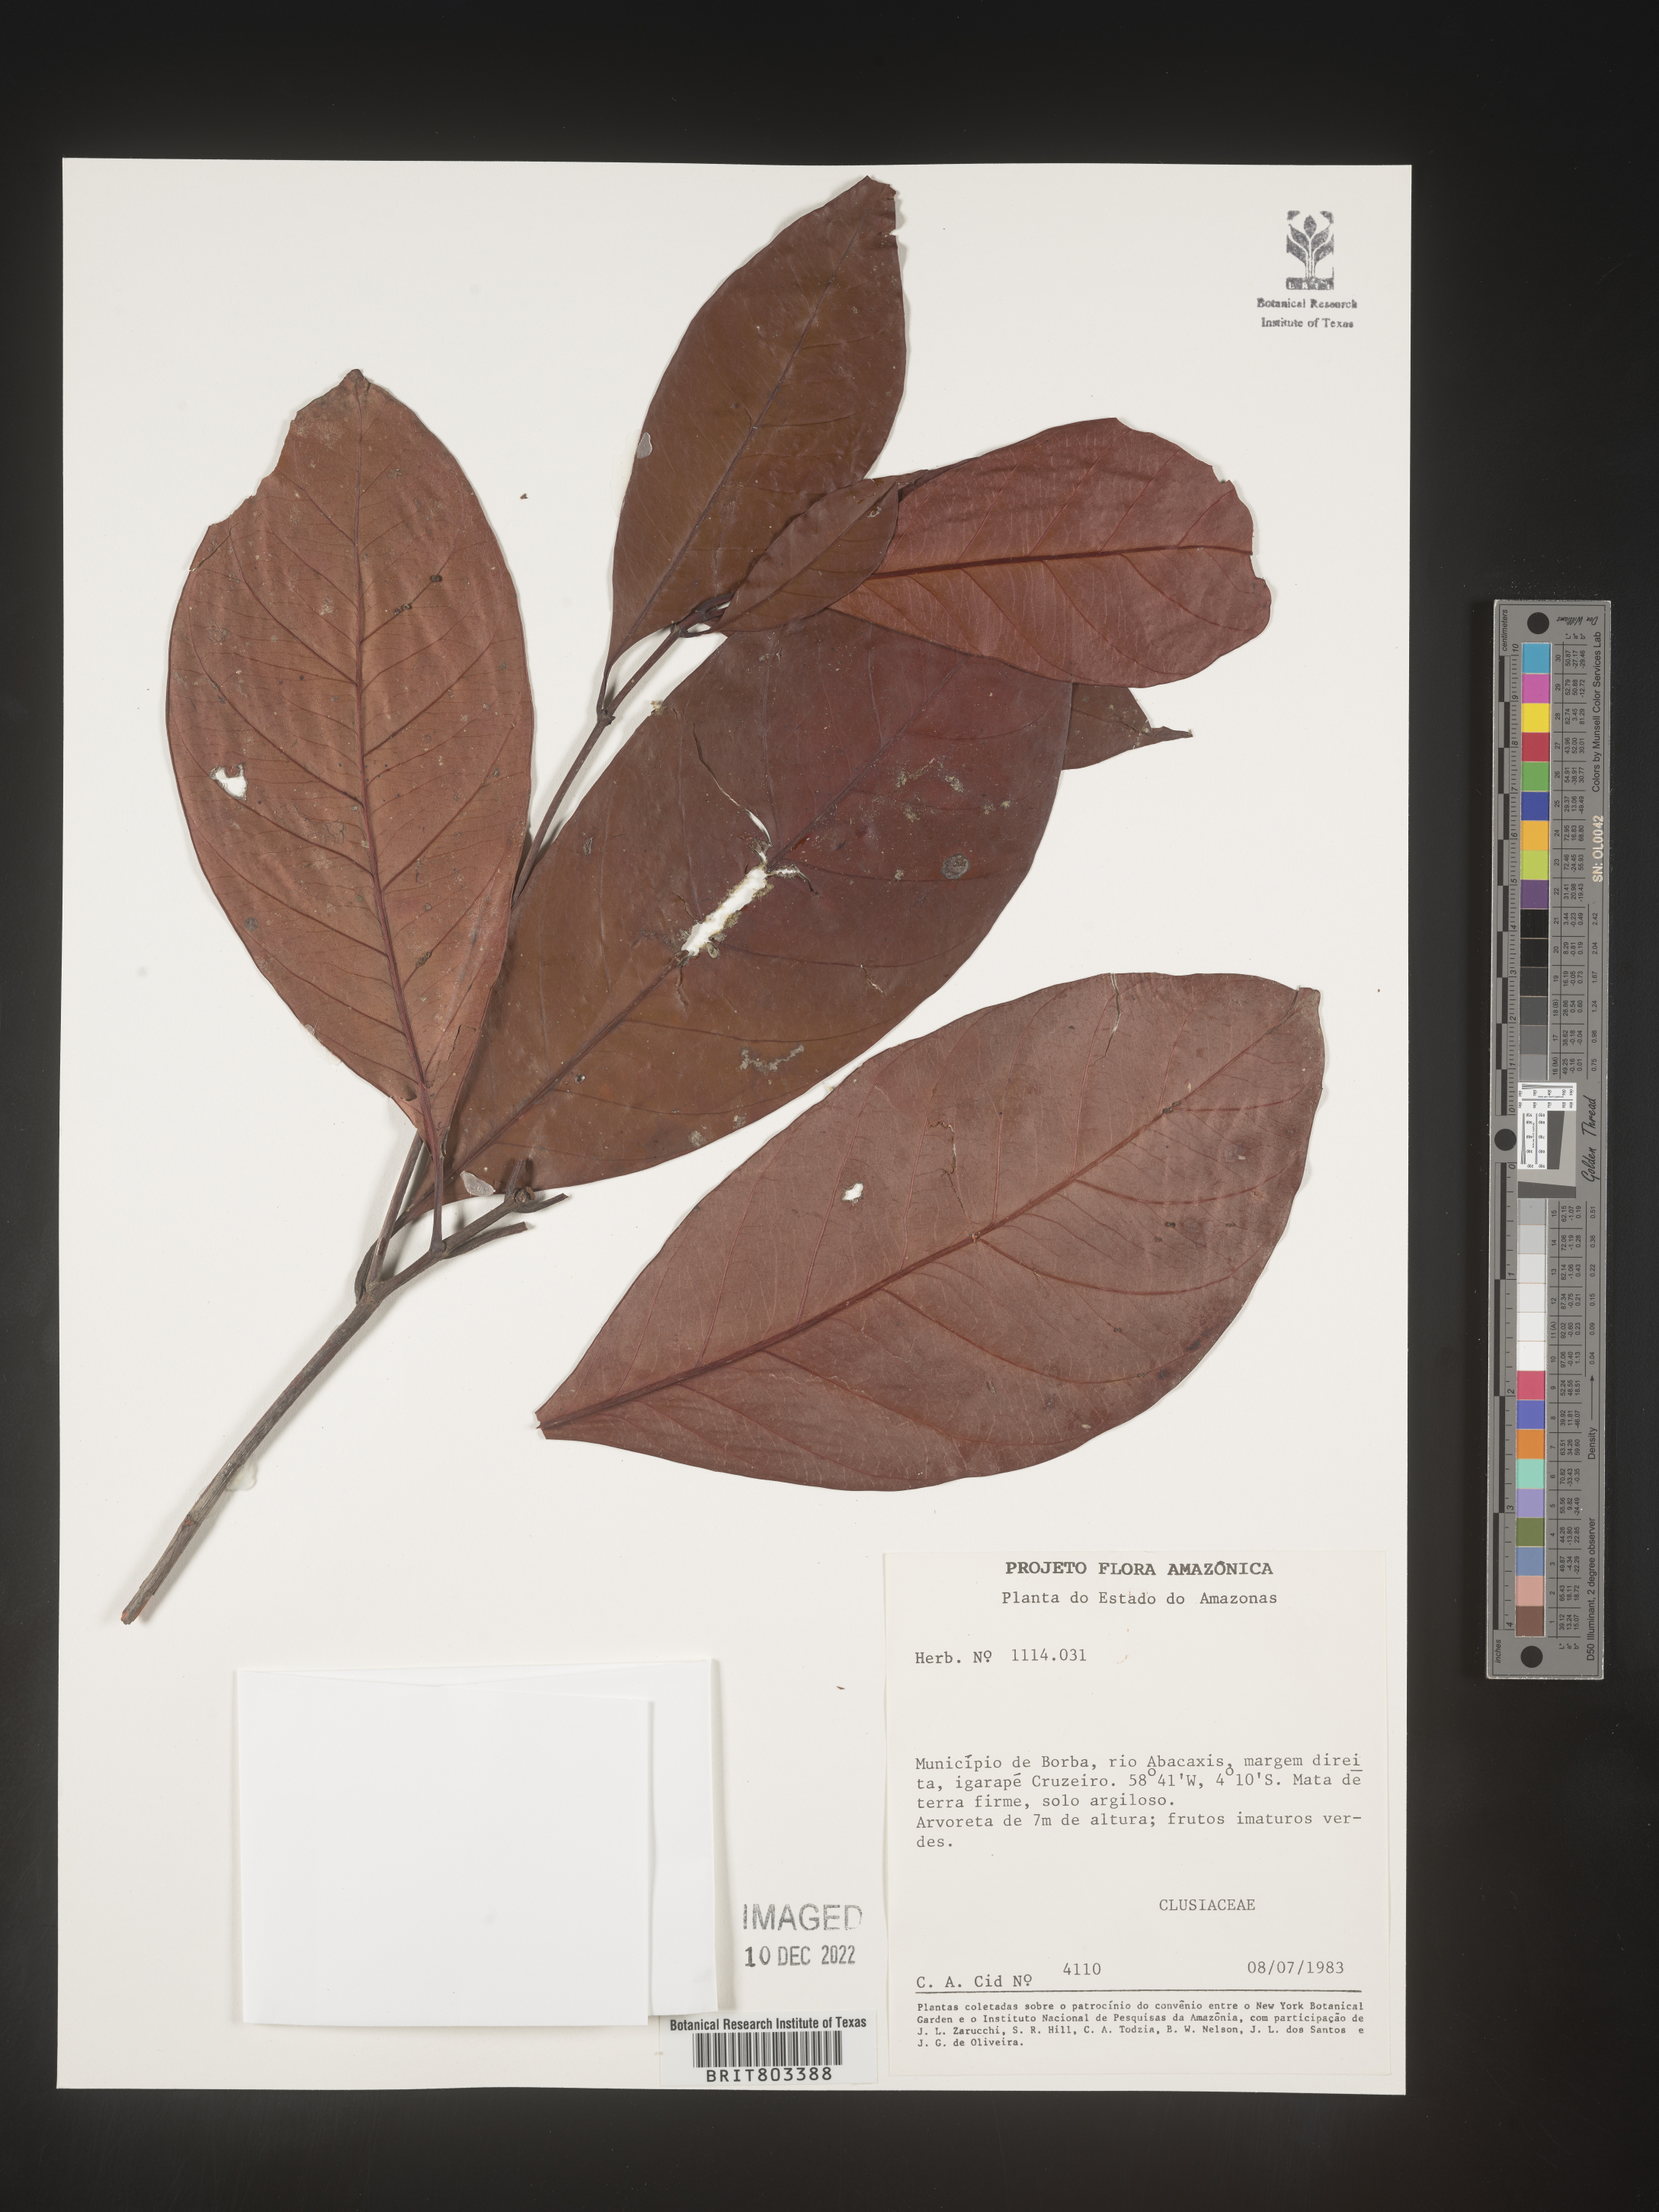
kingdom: Plantae
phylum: Tracheophyta
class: Magnoliopsida
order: Malpighiales
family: Clusiaceae
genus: Tovomita
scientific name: Tovomita
